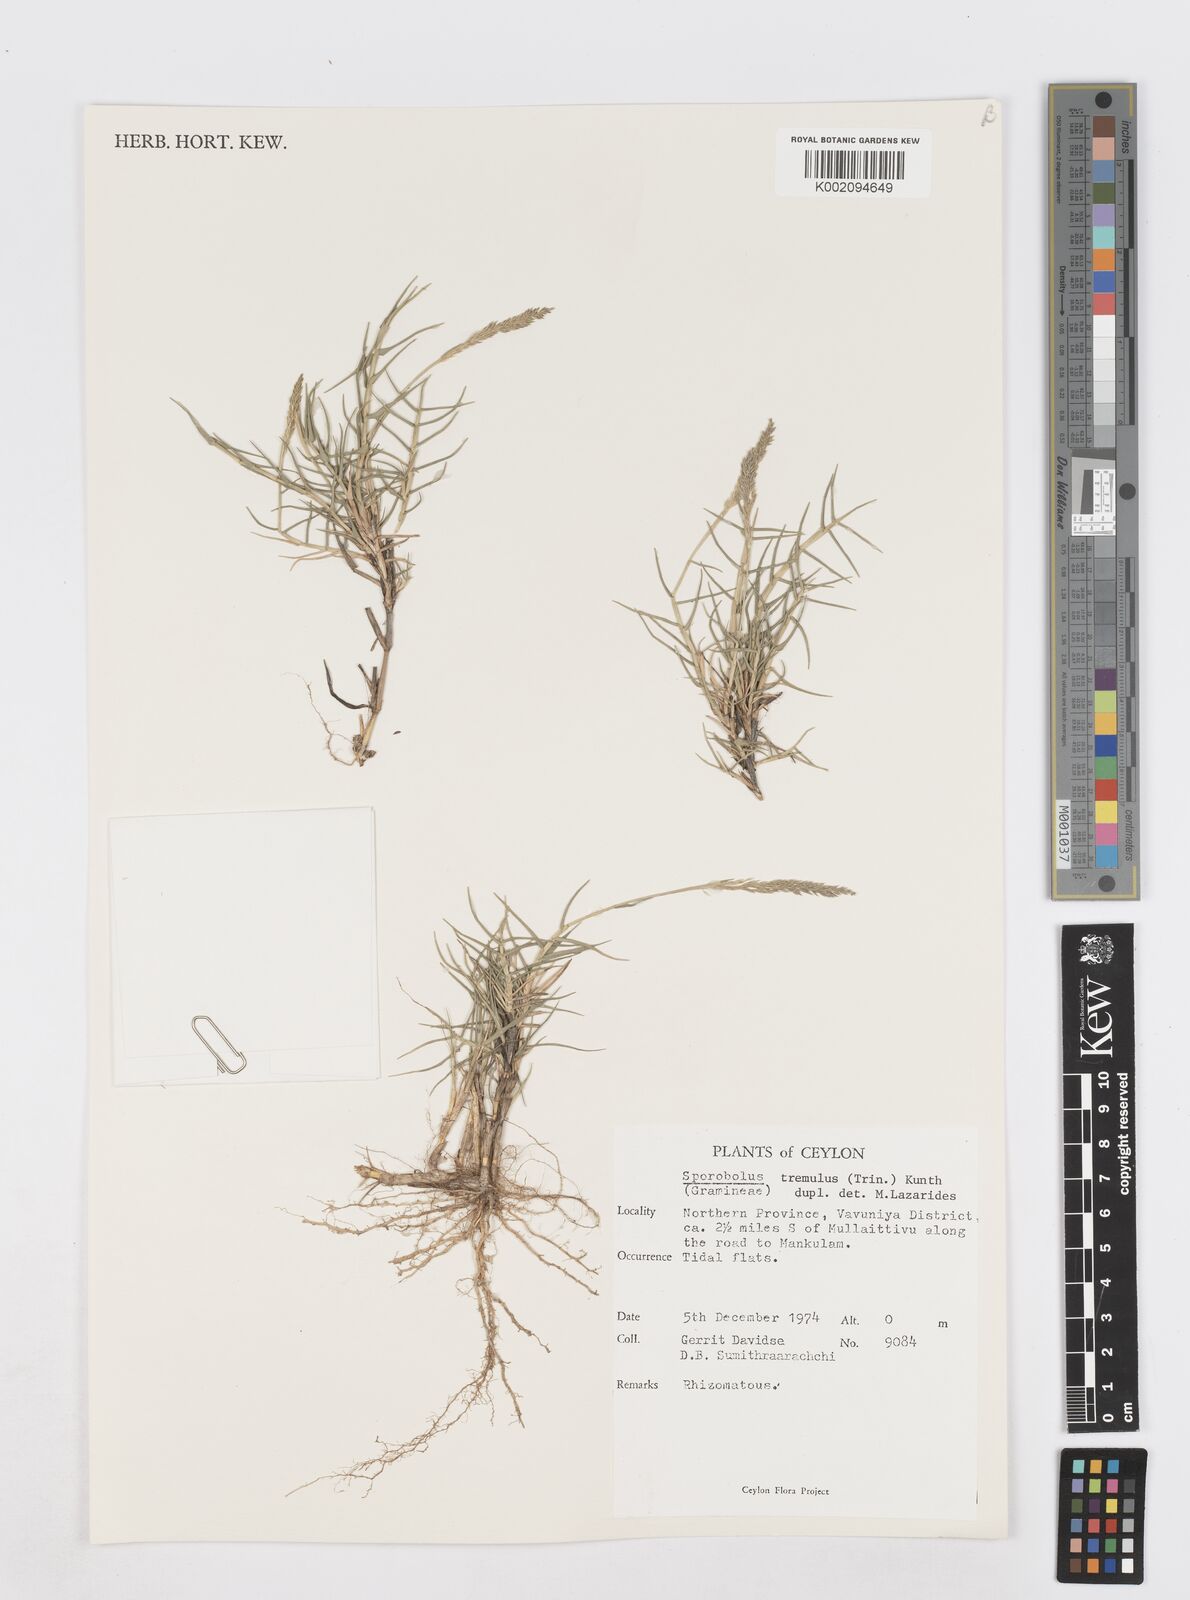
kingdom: Plantae
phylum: Tracheophyta
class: Liliopsida
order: Poales
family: Poaceae
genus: Sporobolus
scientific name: Sporobolus virginicus
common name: Beach dropseed
